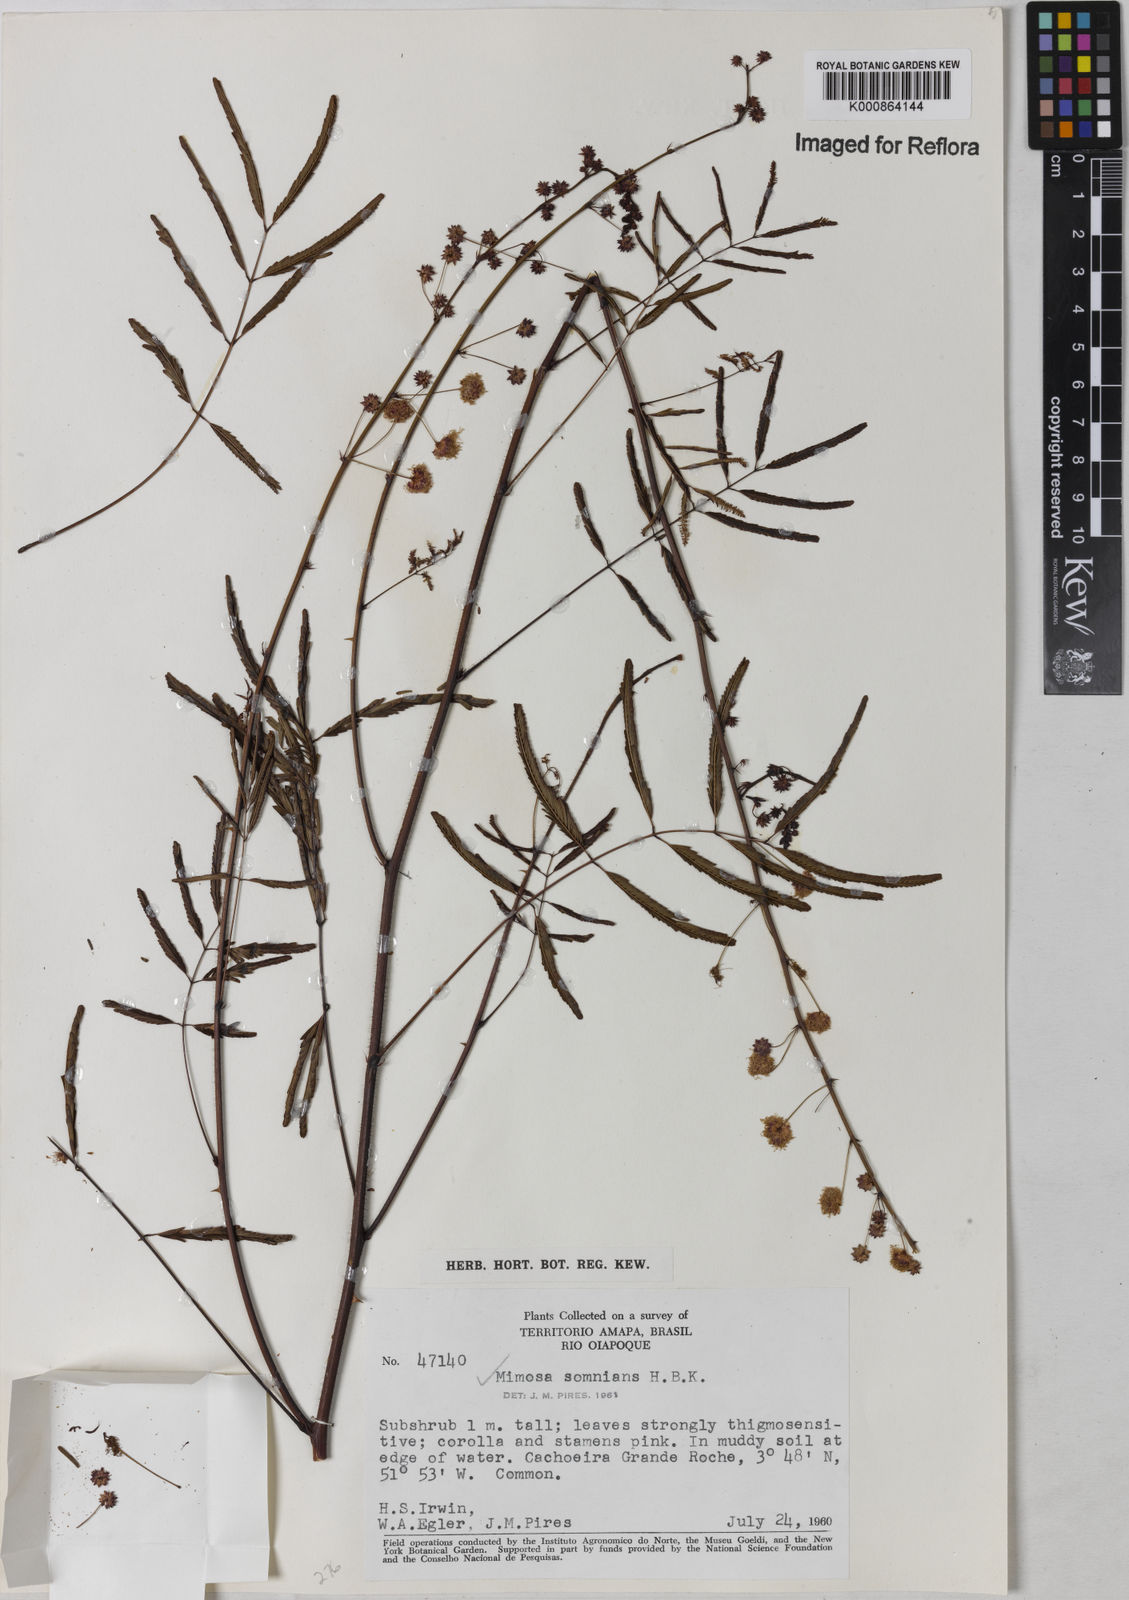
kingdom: Plantae
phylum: Tracheophyta
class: Magnoliopsida
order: Fabales
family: Fabaceae
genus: Mimosa
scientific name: Mimosa somnians
